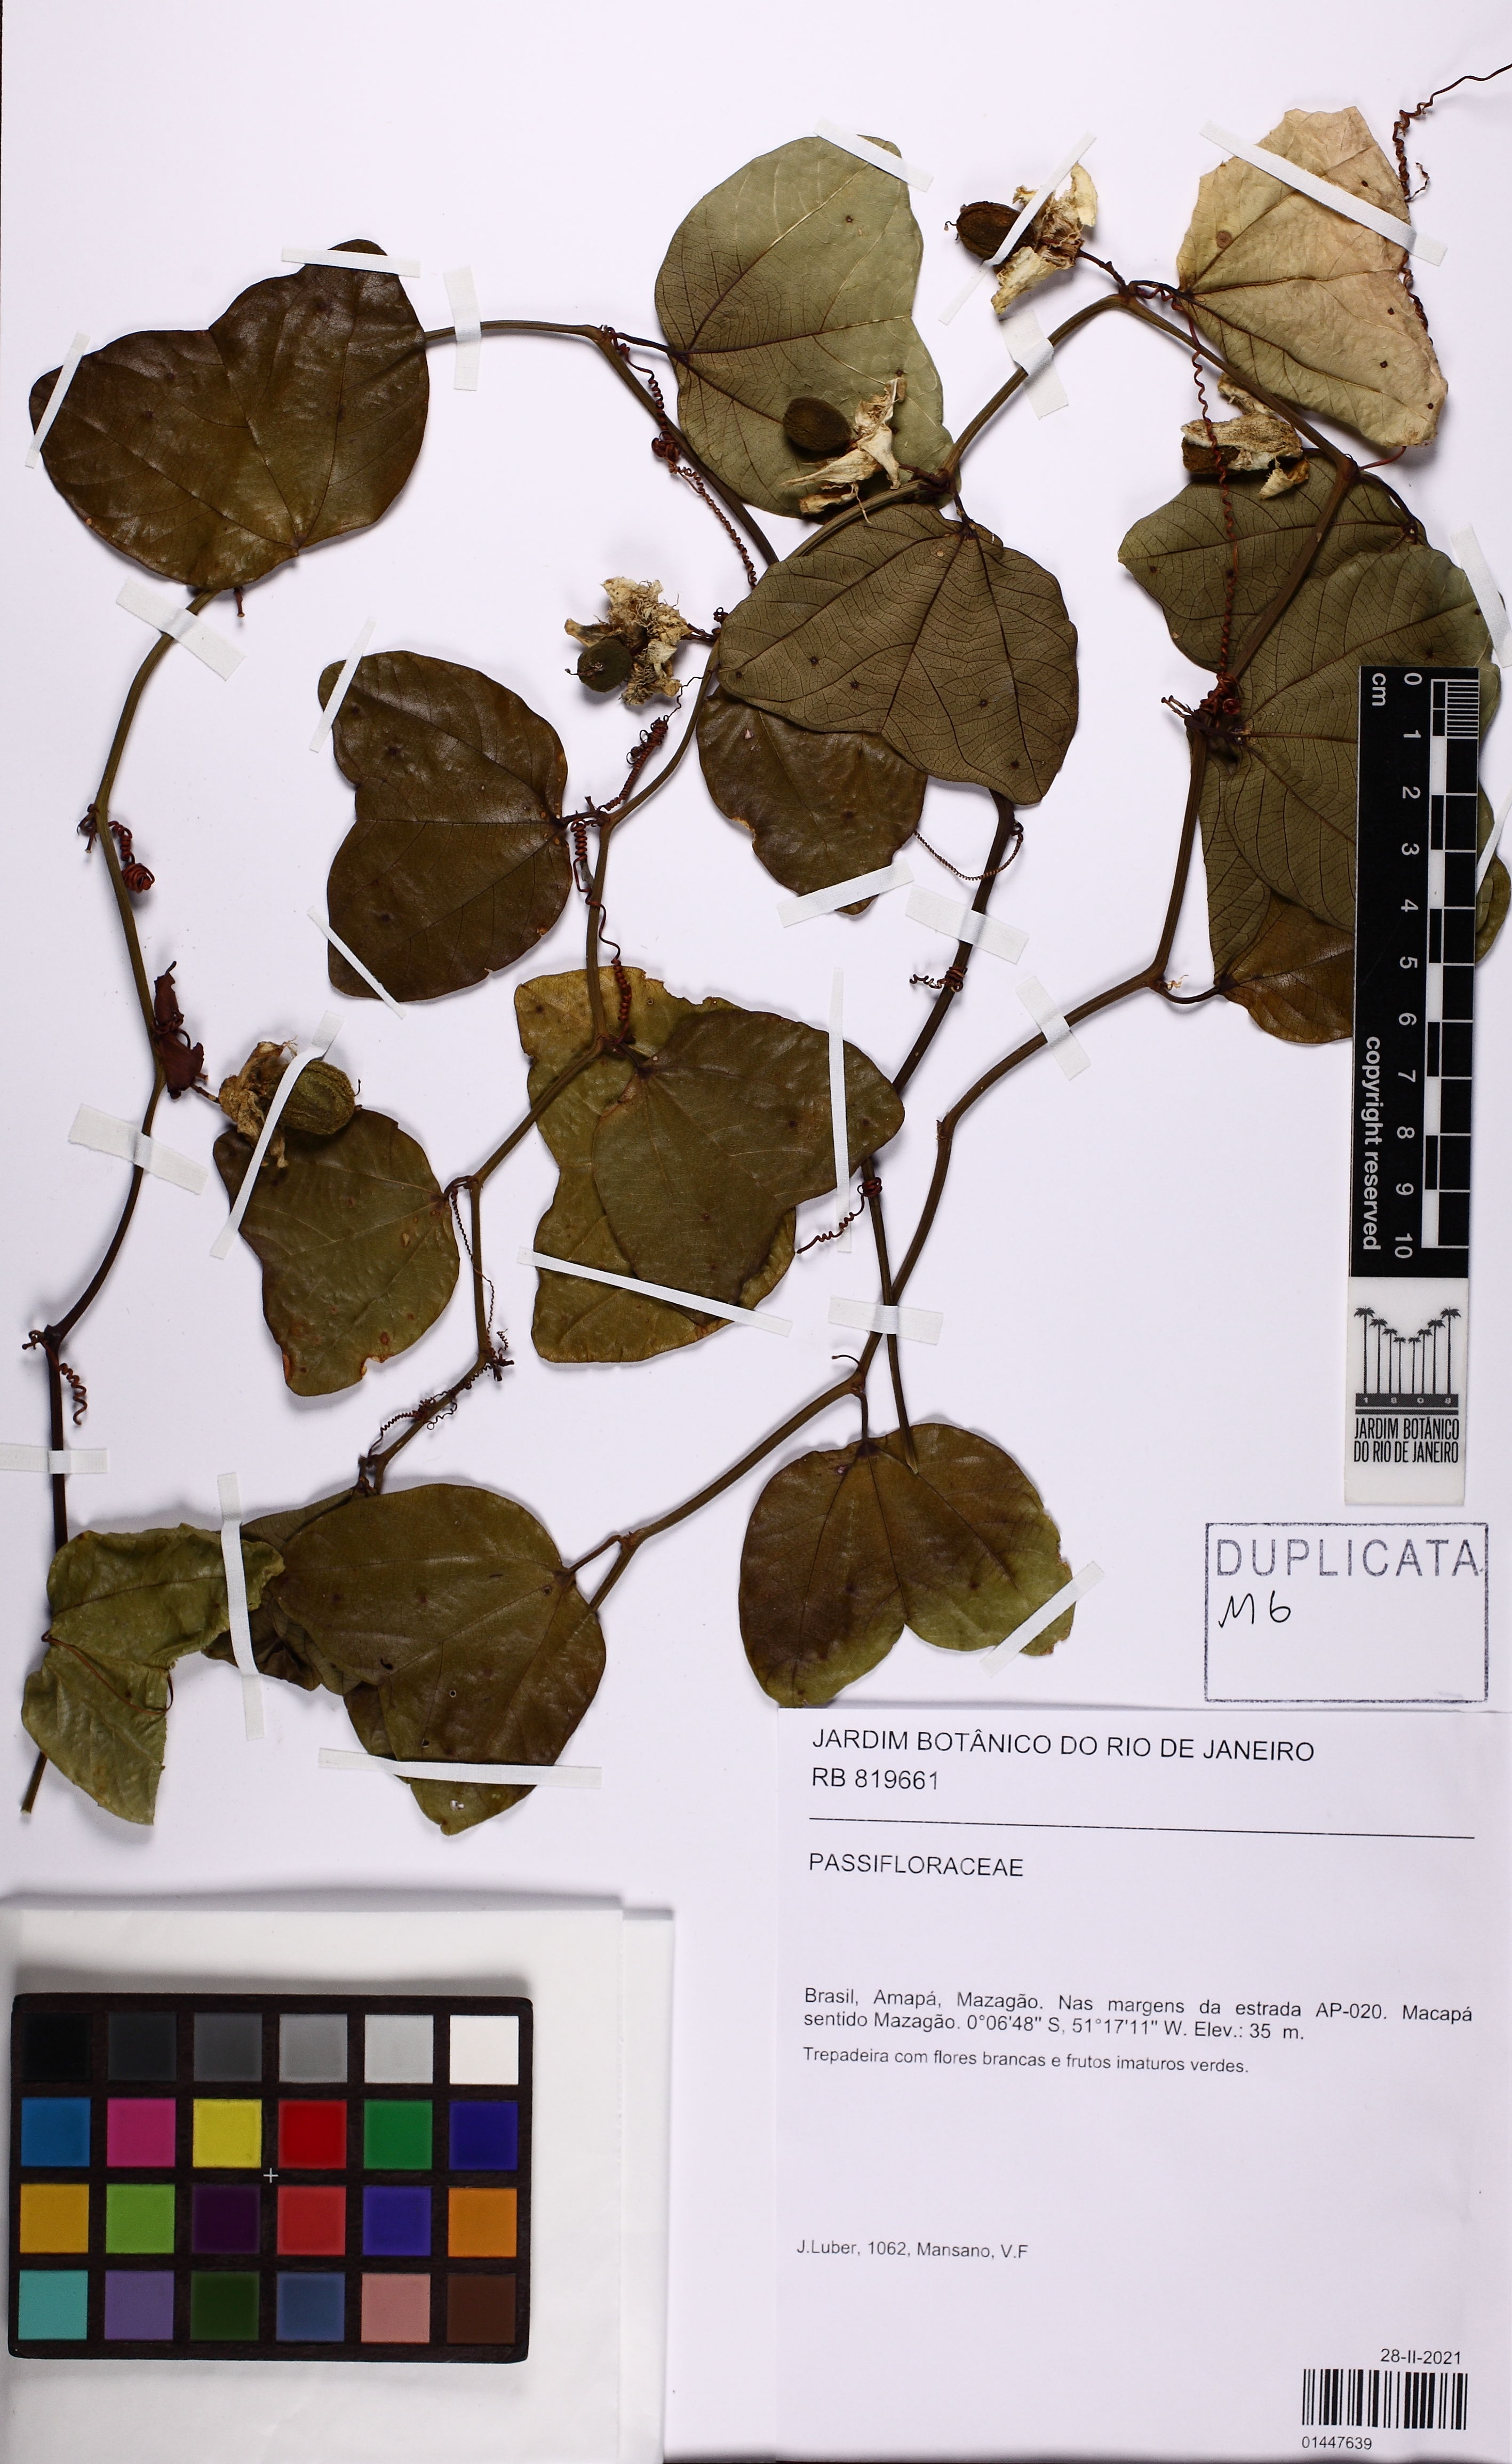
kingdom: Plantae
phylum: Tracheophyta
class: Magnoliopsida
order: Malpighiales
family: Passifloraceae
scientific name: Passifloraceae
